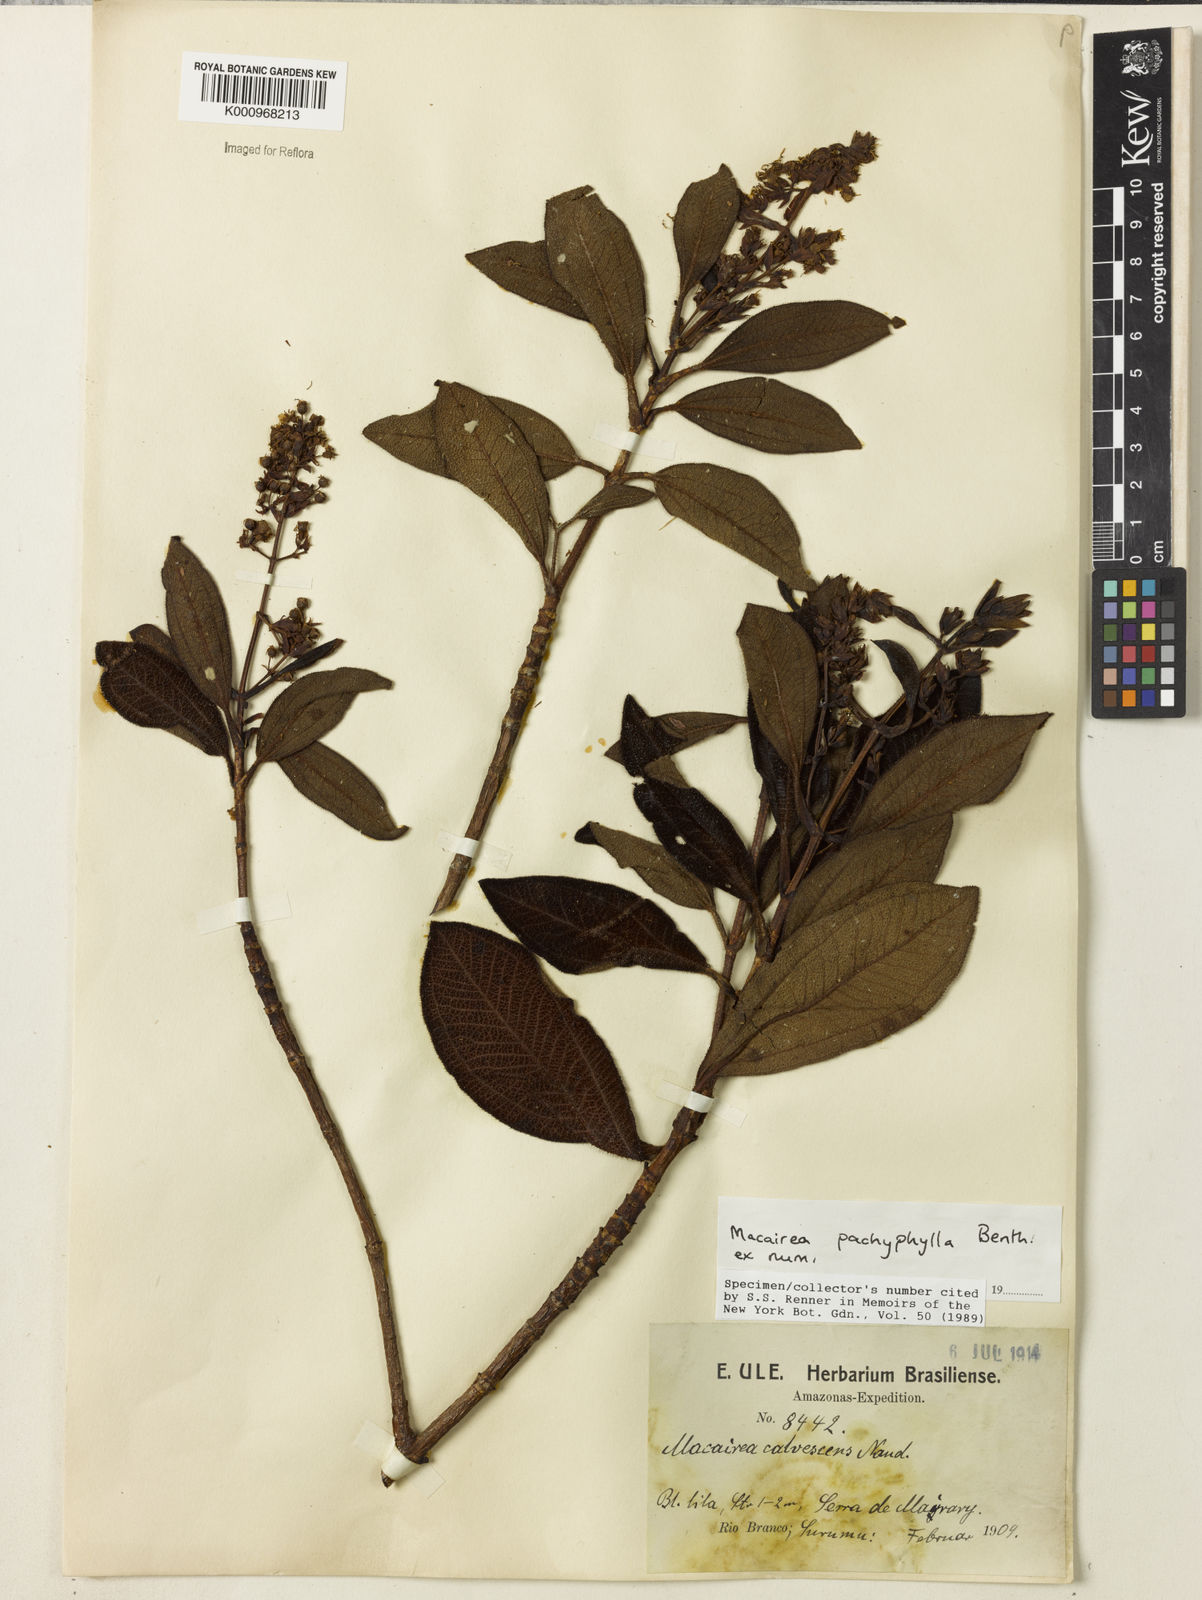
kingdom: Plantae
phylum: Tracheophyta
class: Magnoliopsida
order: Myrtales
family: Melastomataceae
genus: Macairea
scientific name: Macairea pachyphylla
